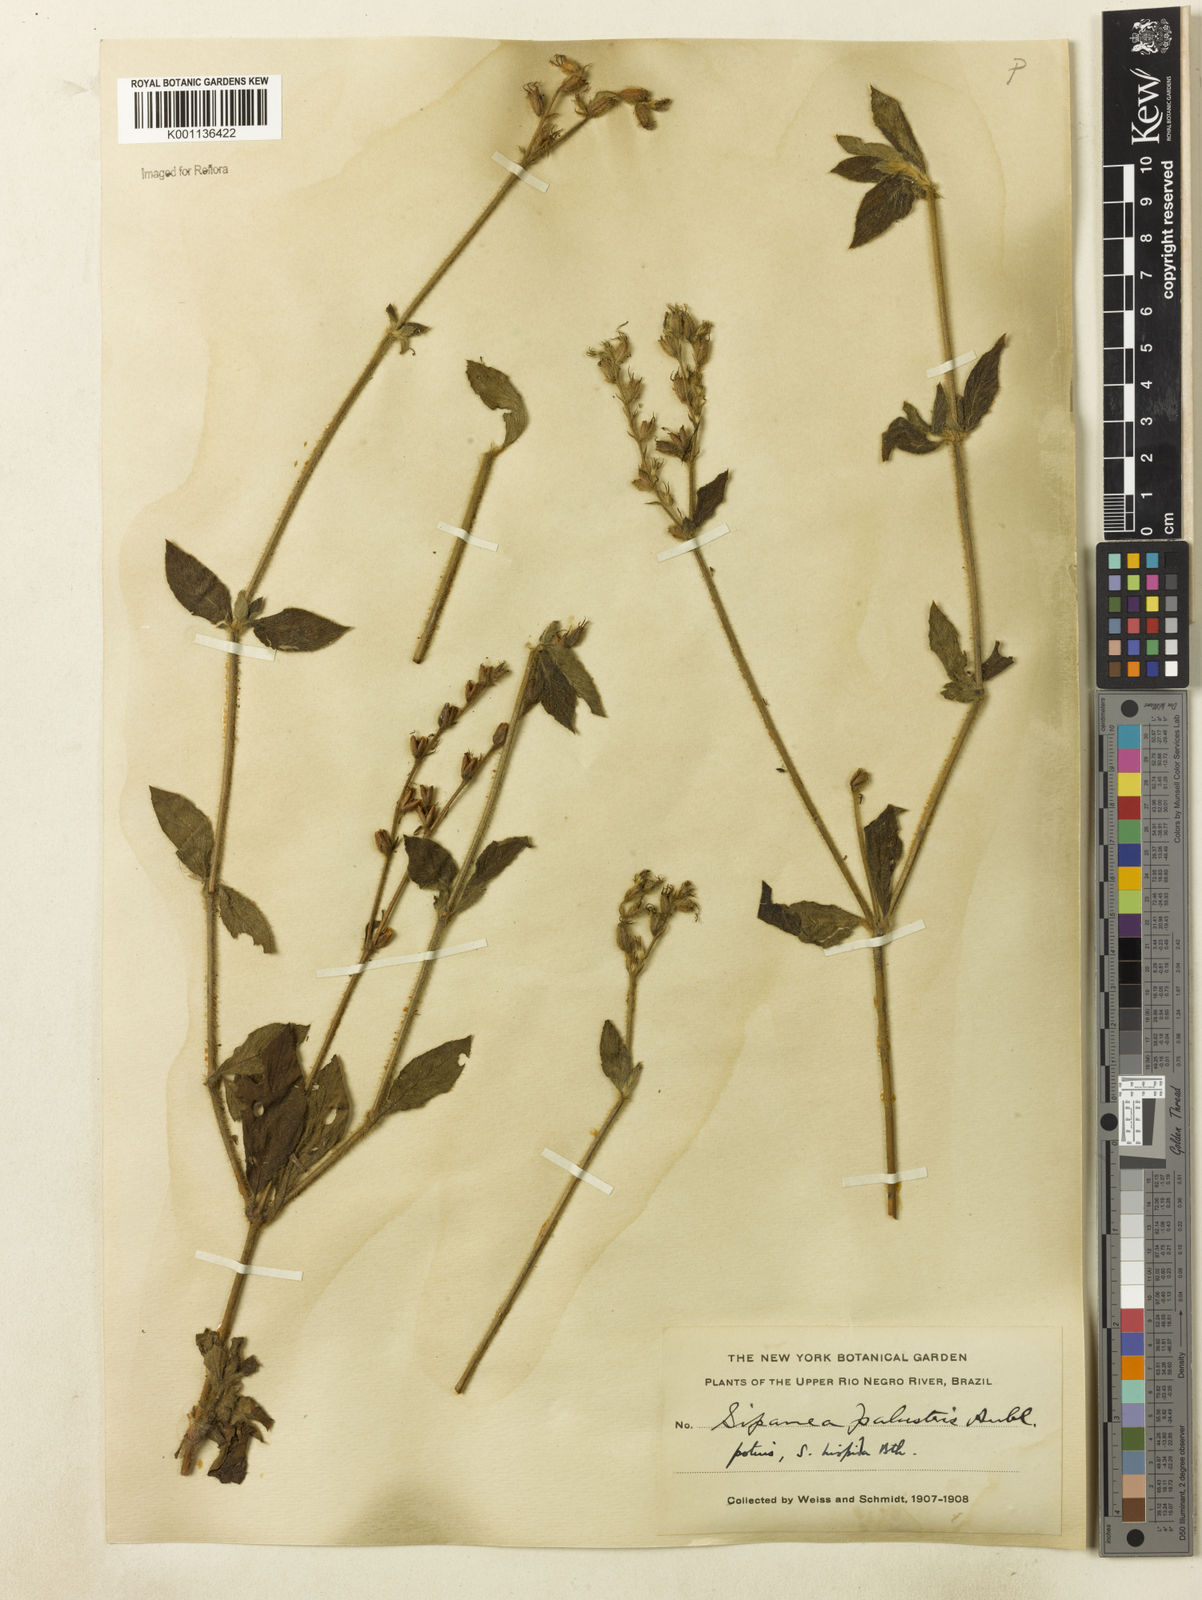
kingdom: Plantae
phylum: Tracheophyta
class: Magnoliopsida
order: Gentianales
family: Rubiaceae
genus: Sipanea
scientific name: Sipanea hispida
